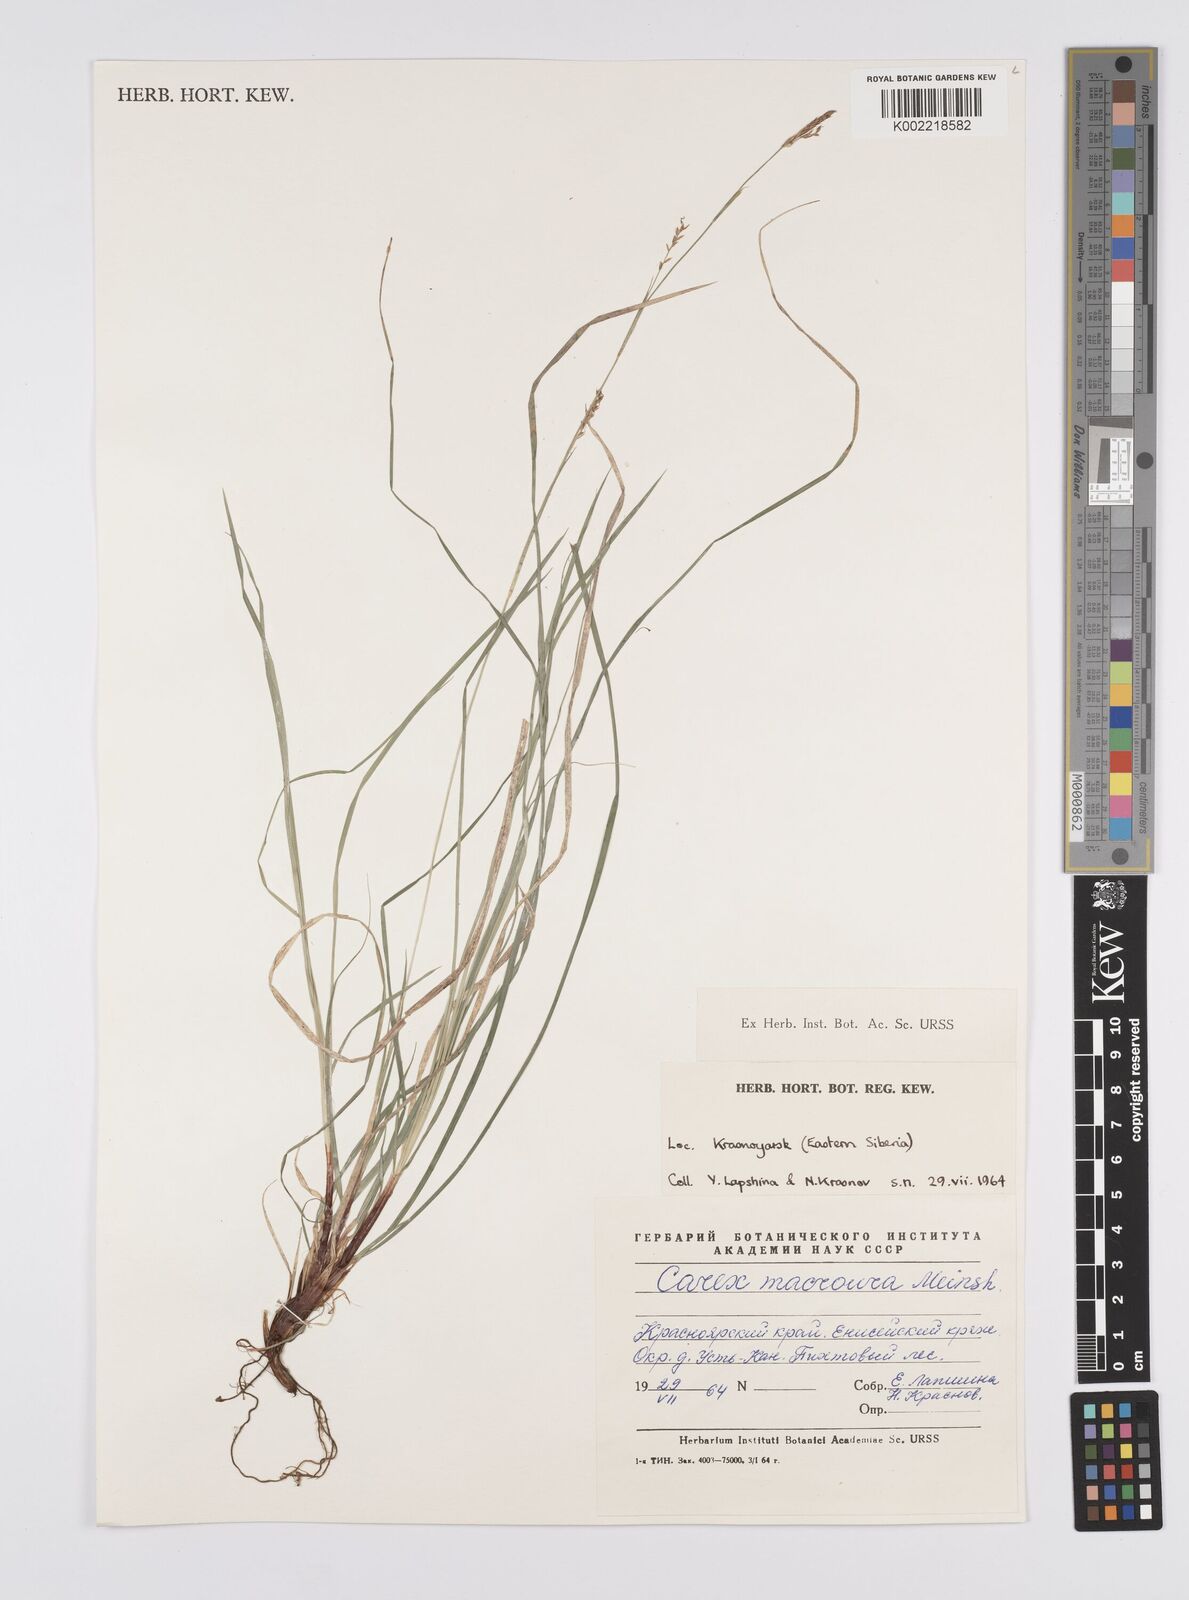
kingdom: Plantae
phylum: Tracheophyta
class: Liliopsida
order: Poales
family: Cyperaceae
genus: Carex
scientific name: Carex pediformis
